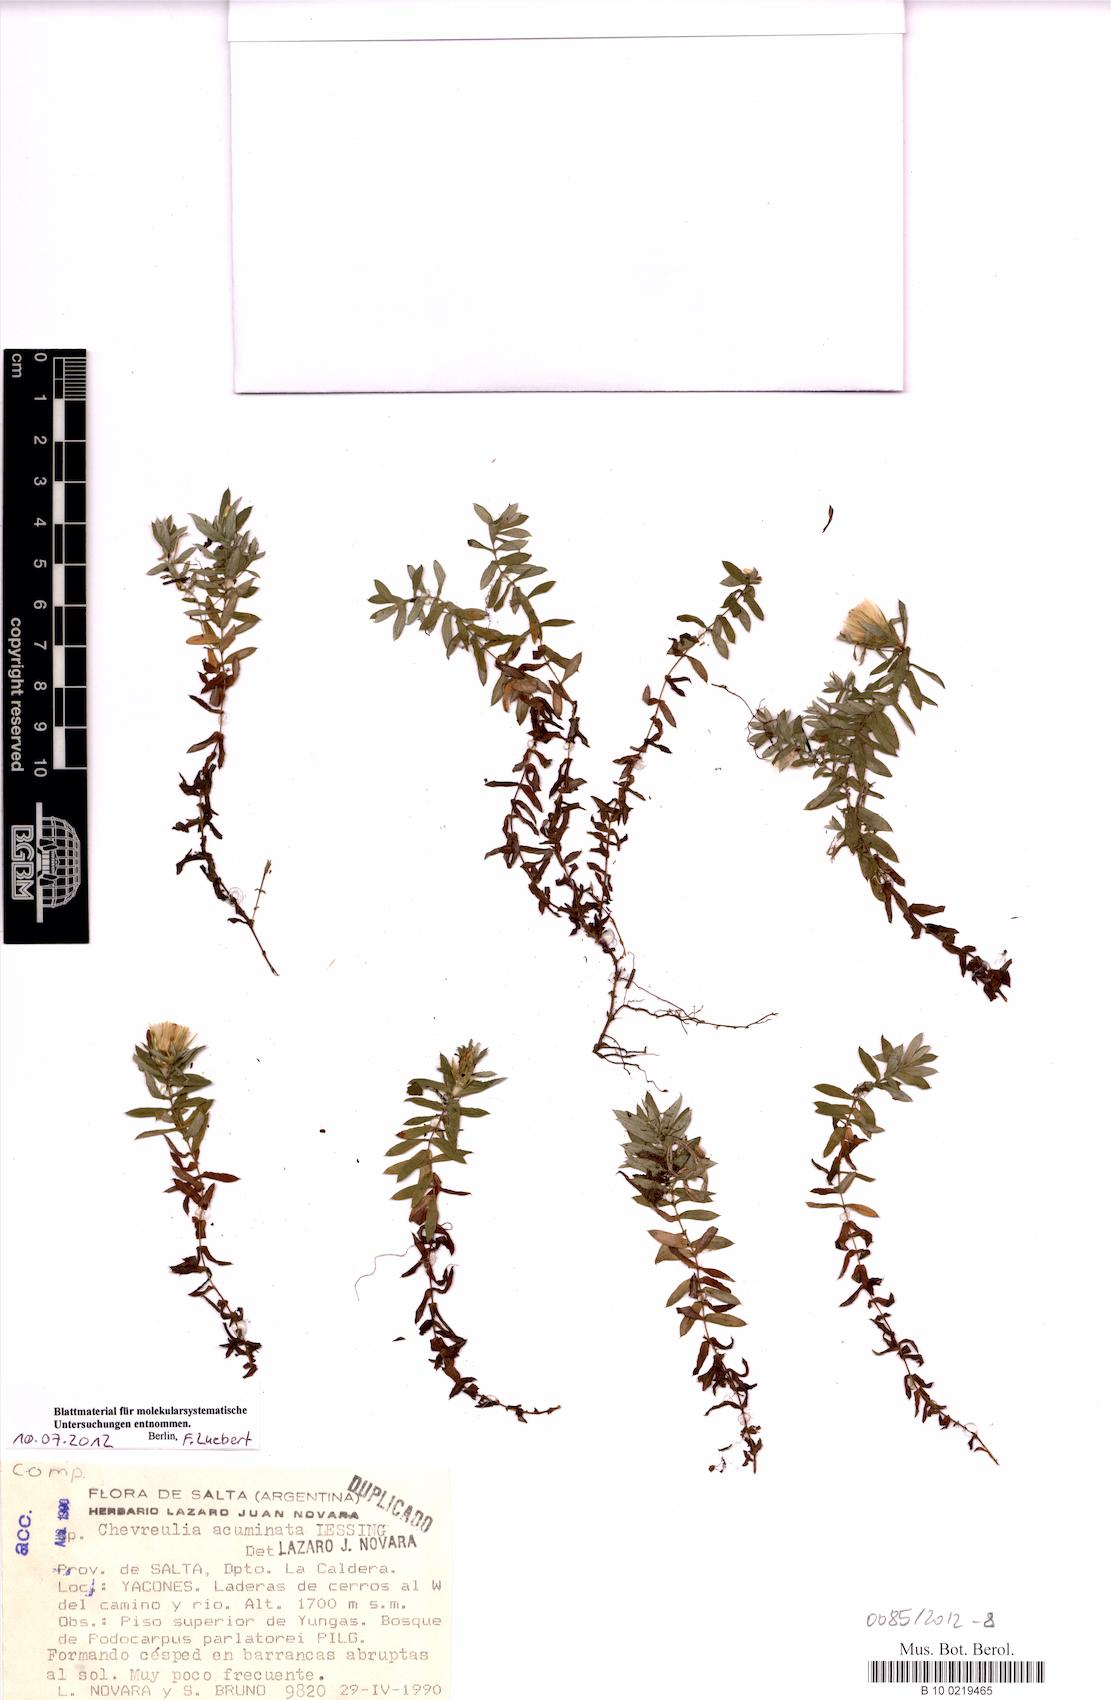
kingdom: Plantae
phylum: Tracheophyta
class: Magnoliopsida
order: Asterales
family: Asteraceae
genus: Chevreulia
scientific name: Chevreulia acuminata
